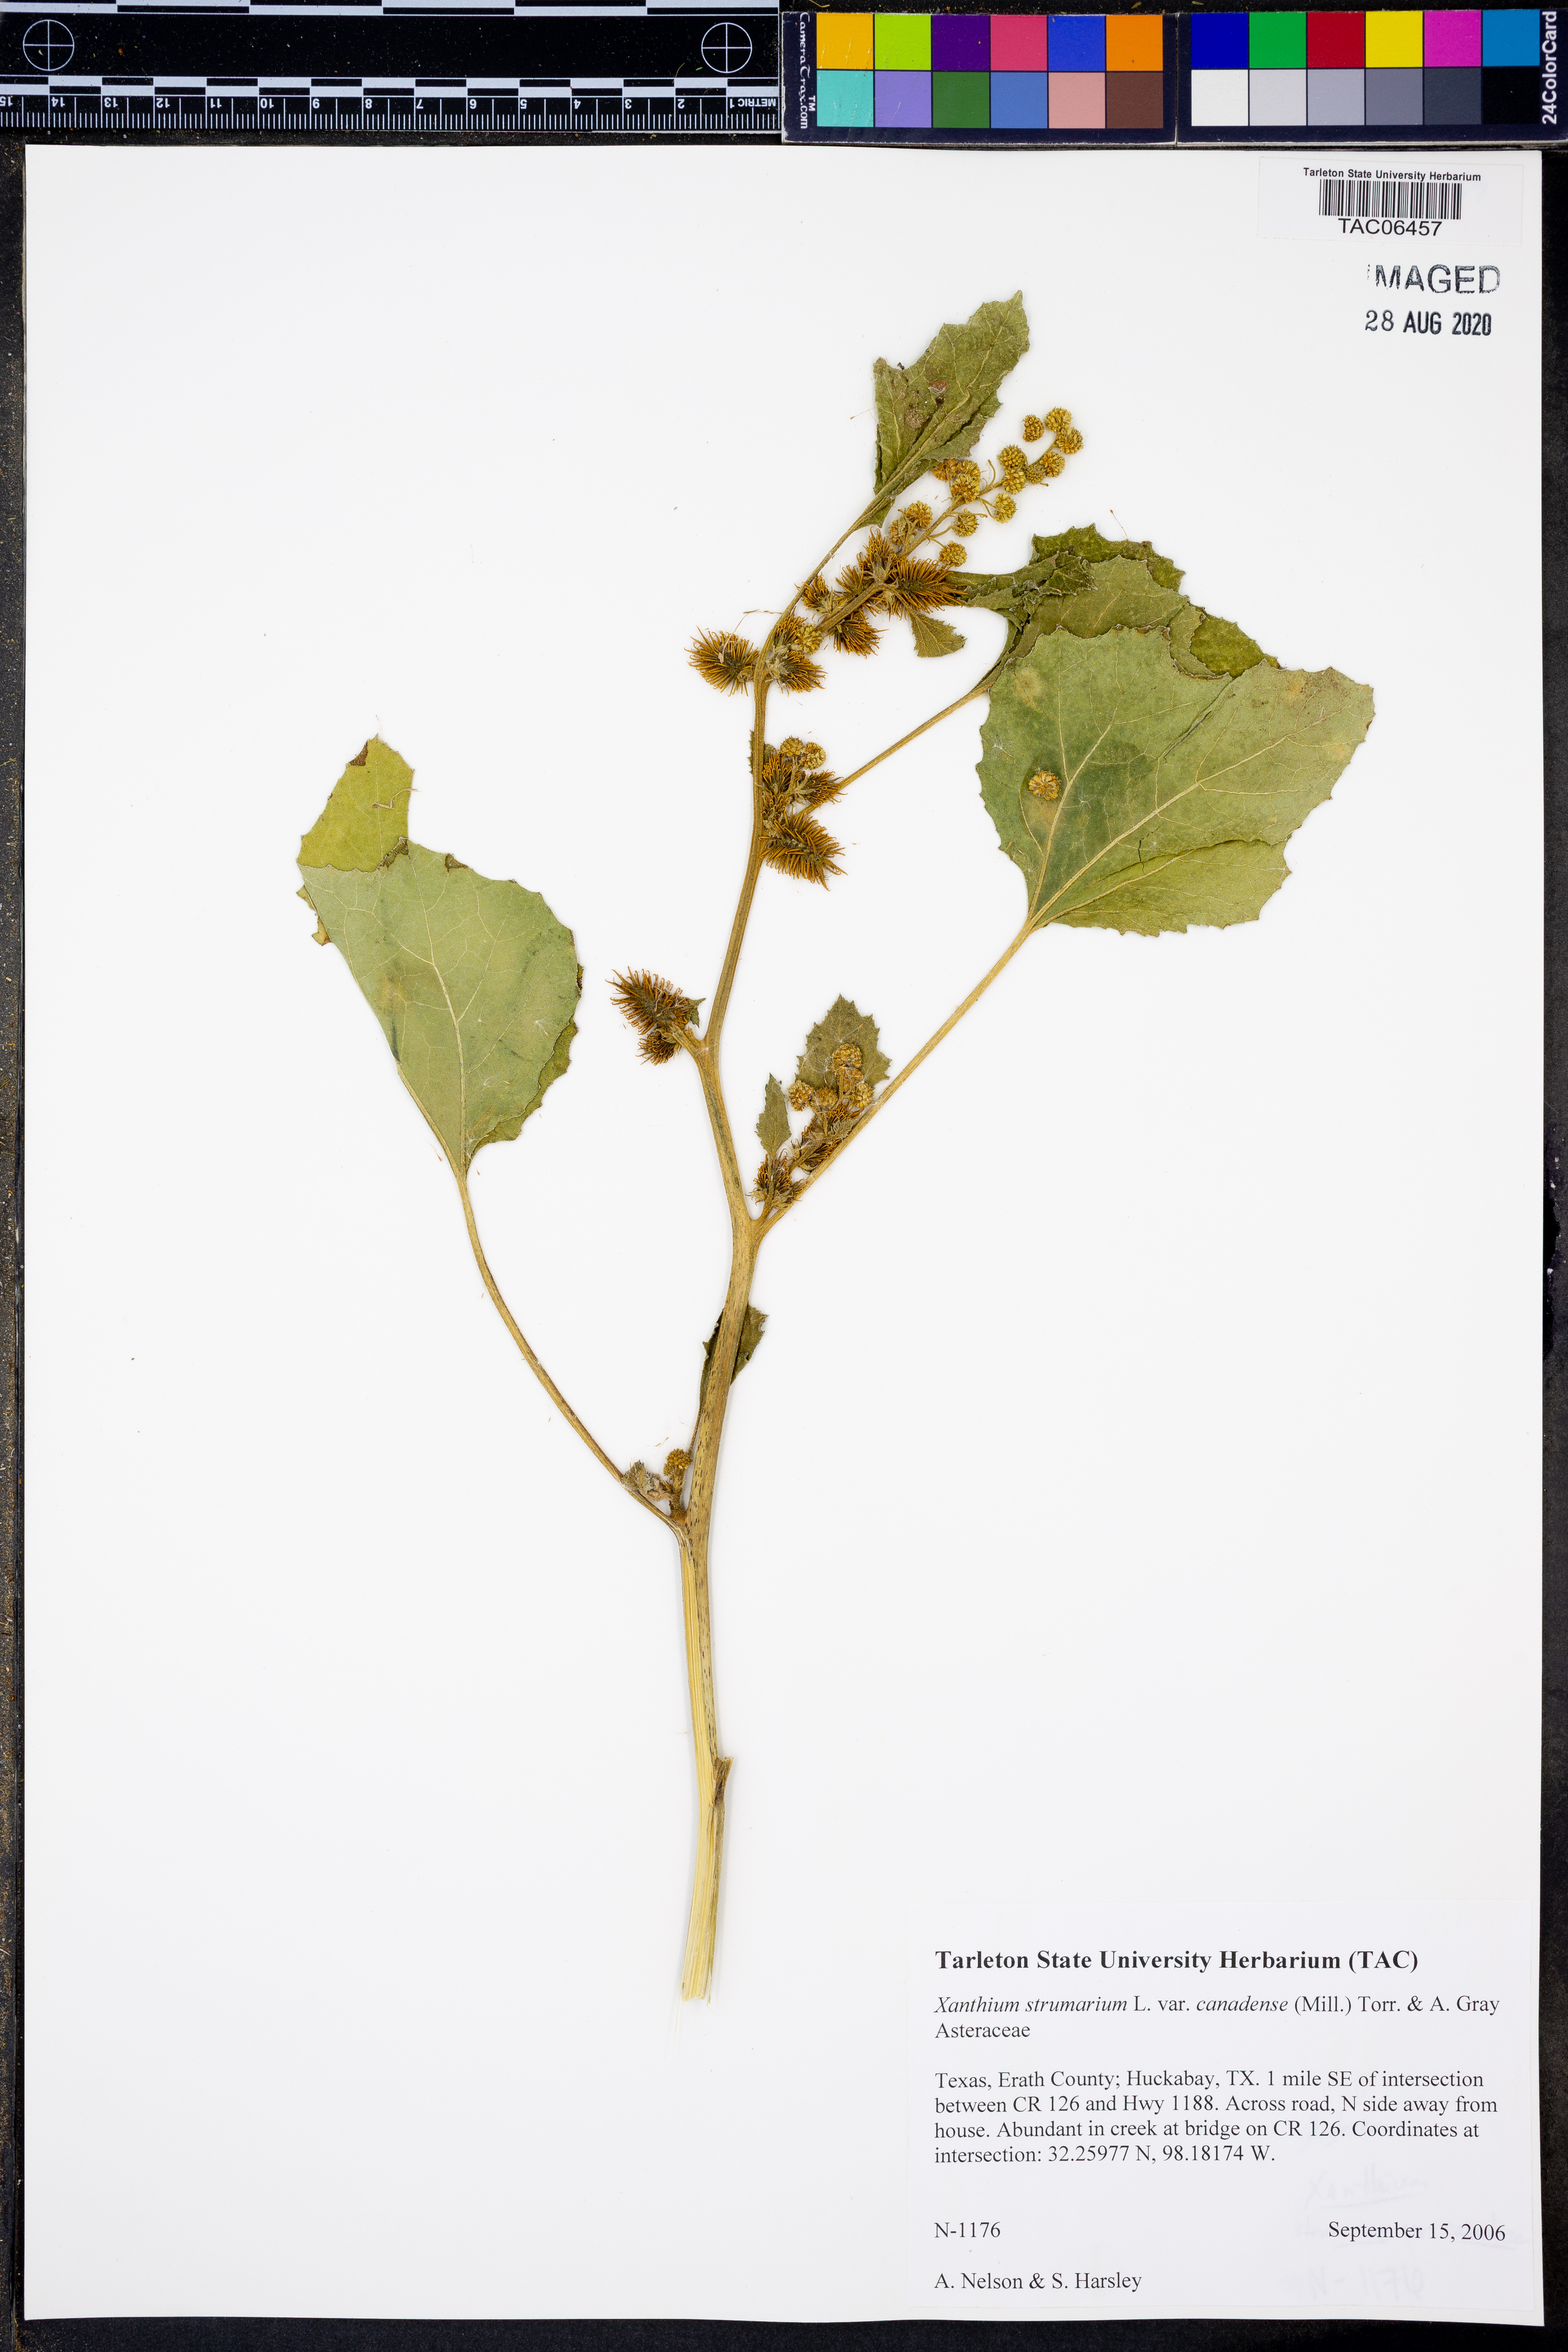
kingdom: Plantae
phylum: Tracheophyta
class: Magnoliopsida
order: Asterales
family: Asteraceae
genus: Xanthium
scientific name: Xanthium orientale
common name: Californian burr
